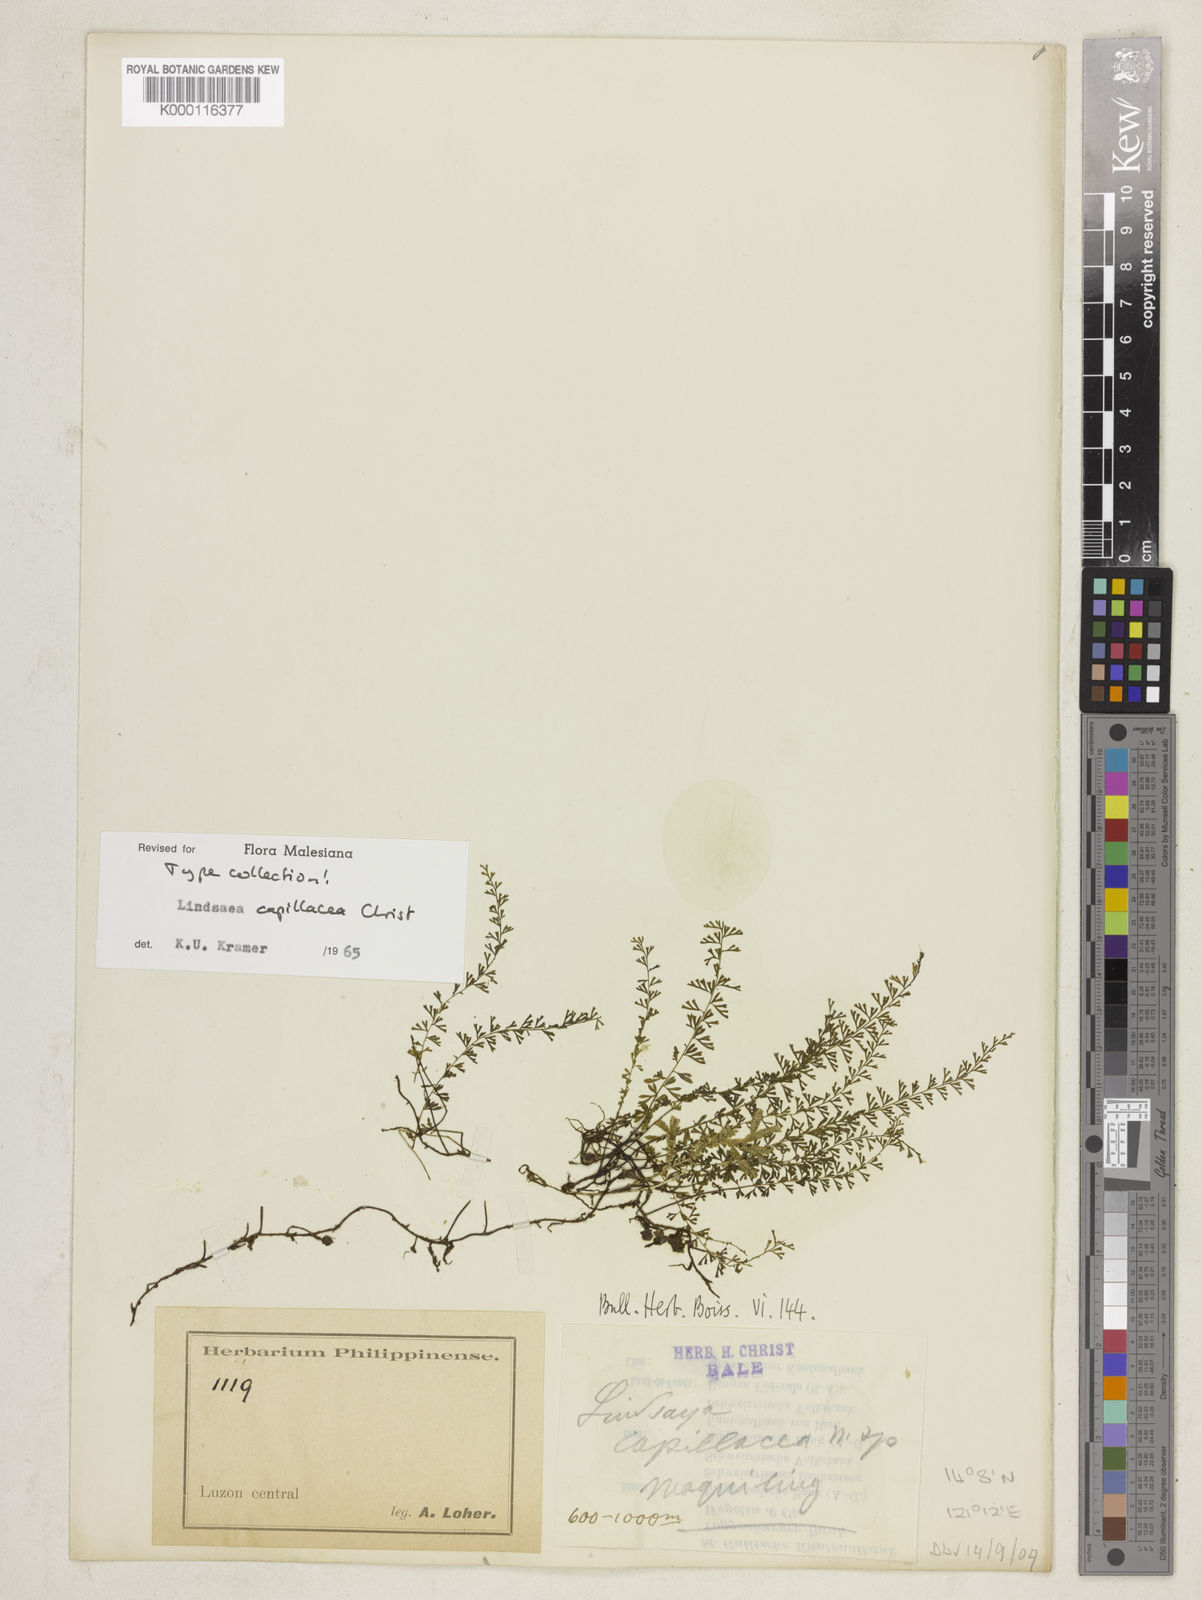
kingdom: Plantae
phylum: Tracheophyta
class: Polypodiopsida
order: Polypodiales
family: Lindsaeaceae
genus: Lindsaea
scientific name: Lindsaea bakeri
